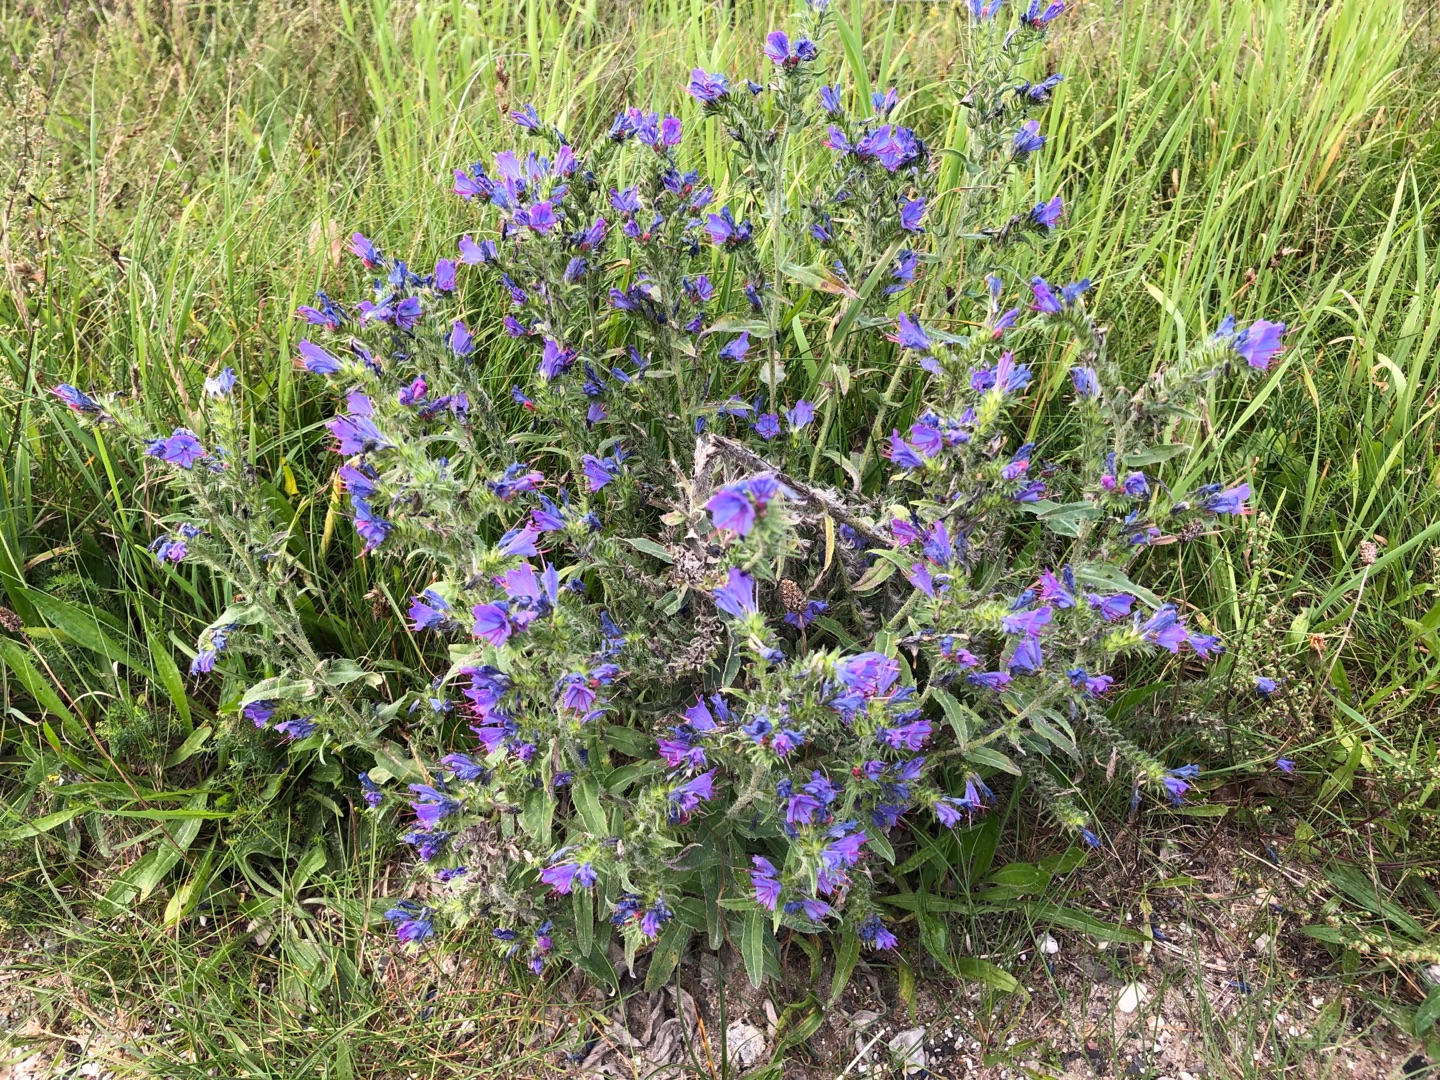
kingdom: Plantae
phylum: Tracheophyta
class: Magnoliopsida
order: Boraginales
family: Boraginaceae
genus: Echium
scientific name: Echium vulgare
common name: Slangehoved
